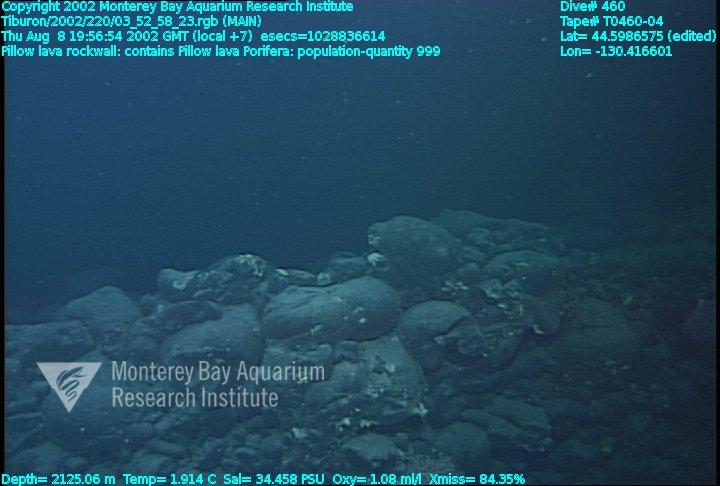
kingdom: Animalia
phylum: Porifera
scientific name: Porifera
